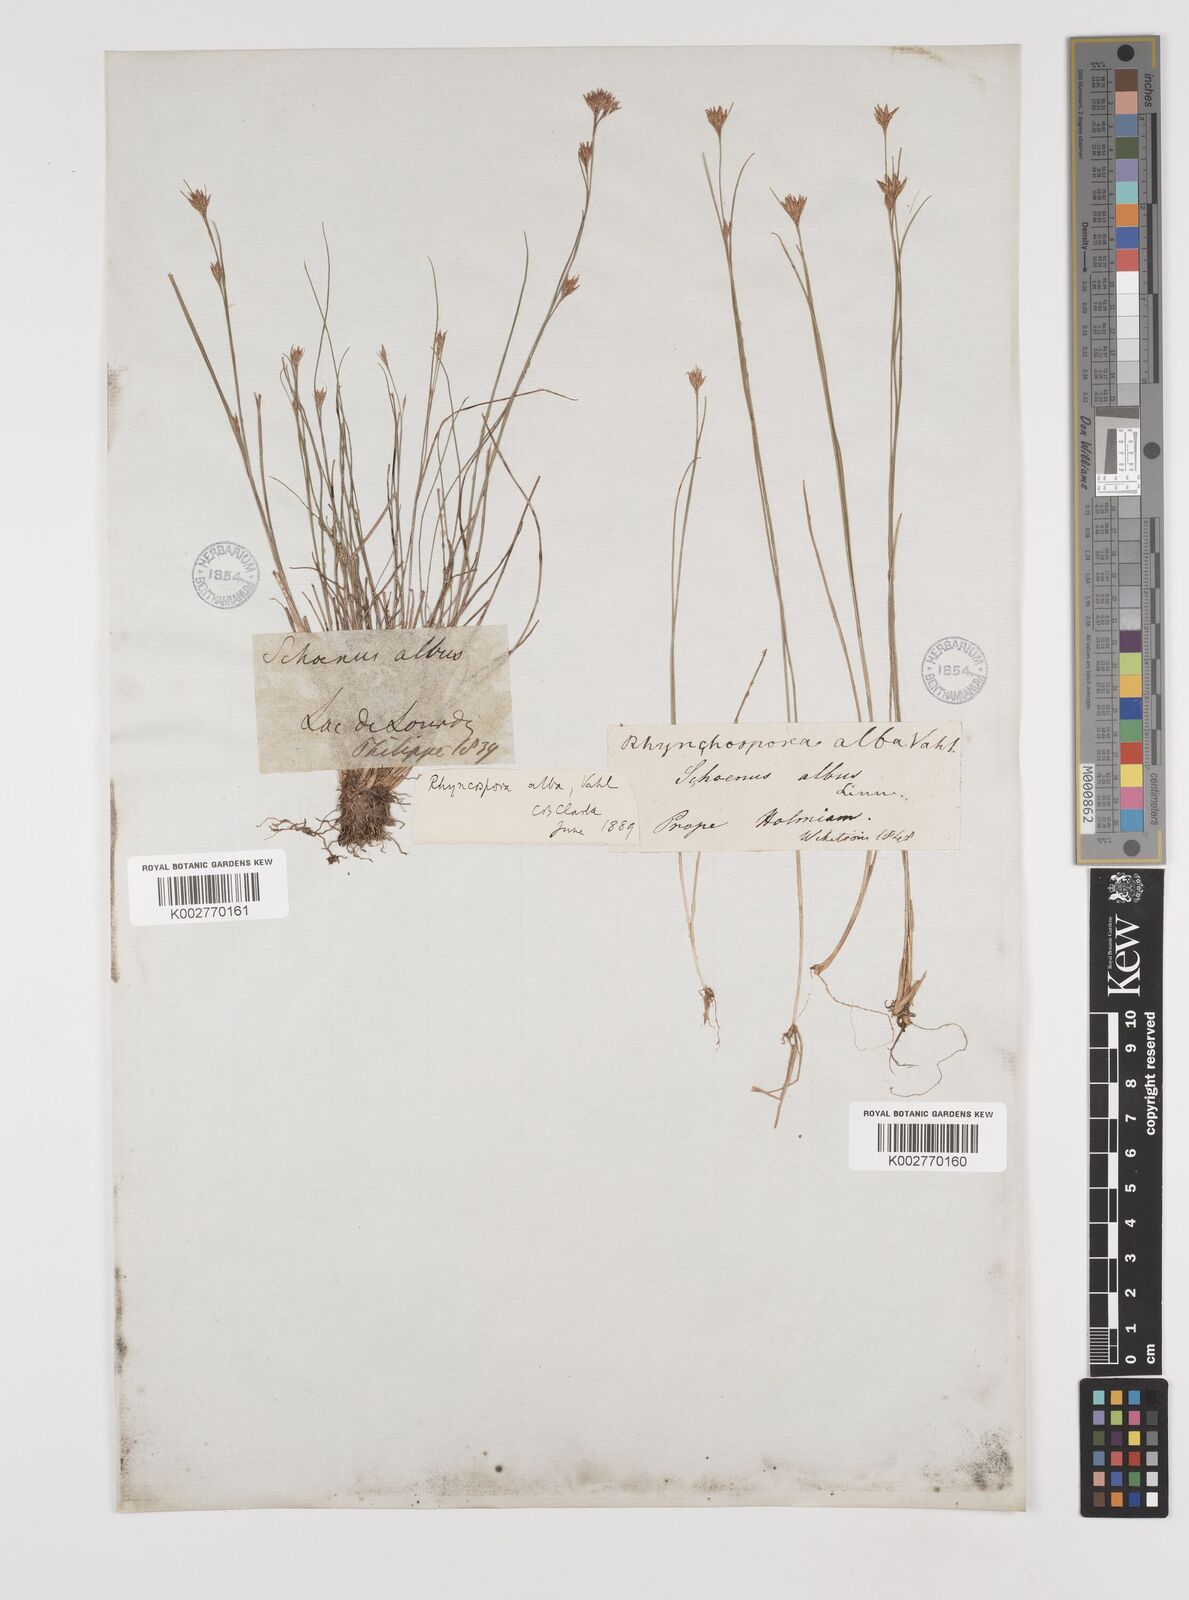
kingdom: Plantae
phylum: Tracheophyta
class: Liliopsida
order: Poales
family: Cyperaceae
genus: Rhynchospora
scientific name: Rhynchospora alba
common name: White beak-sedge
